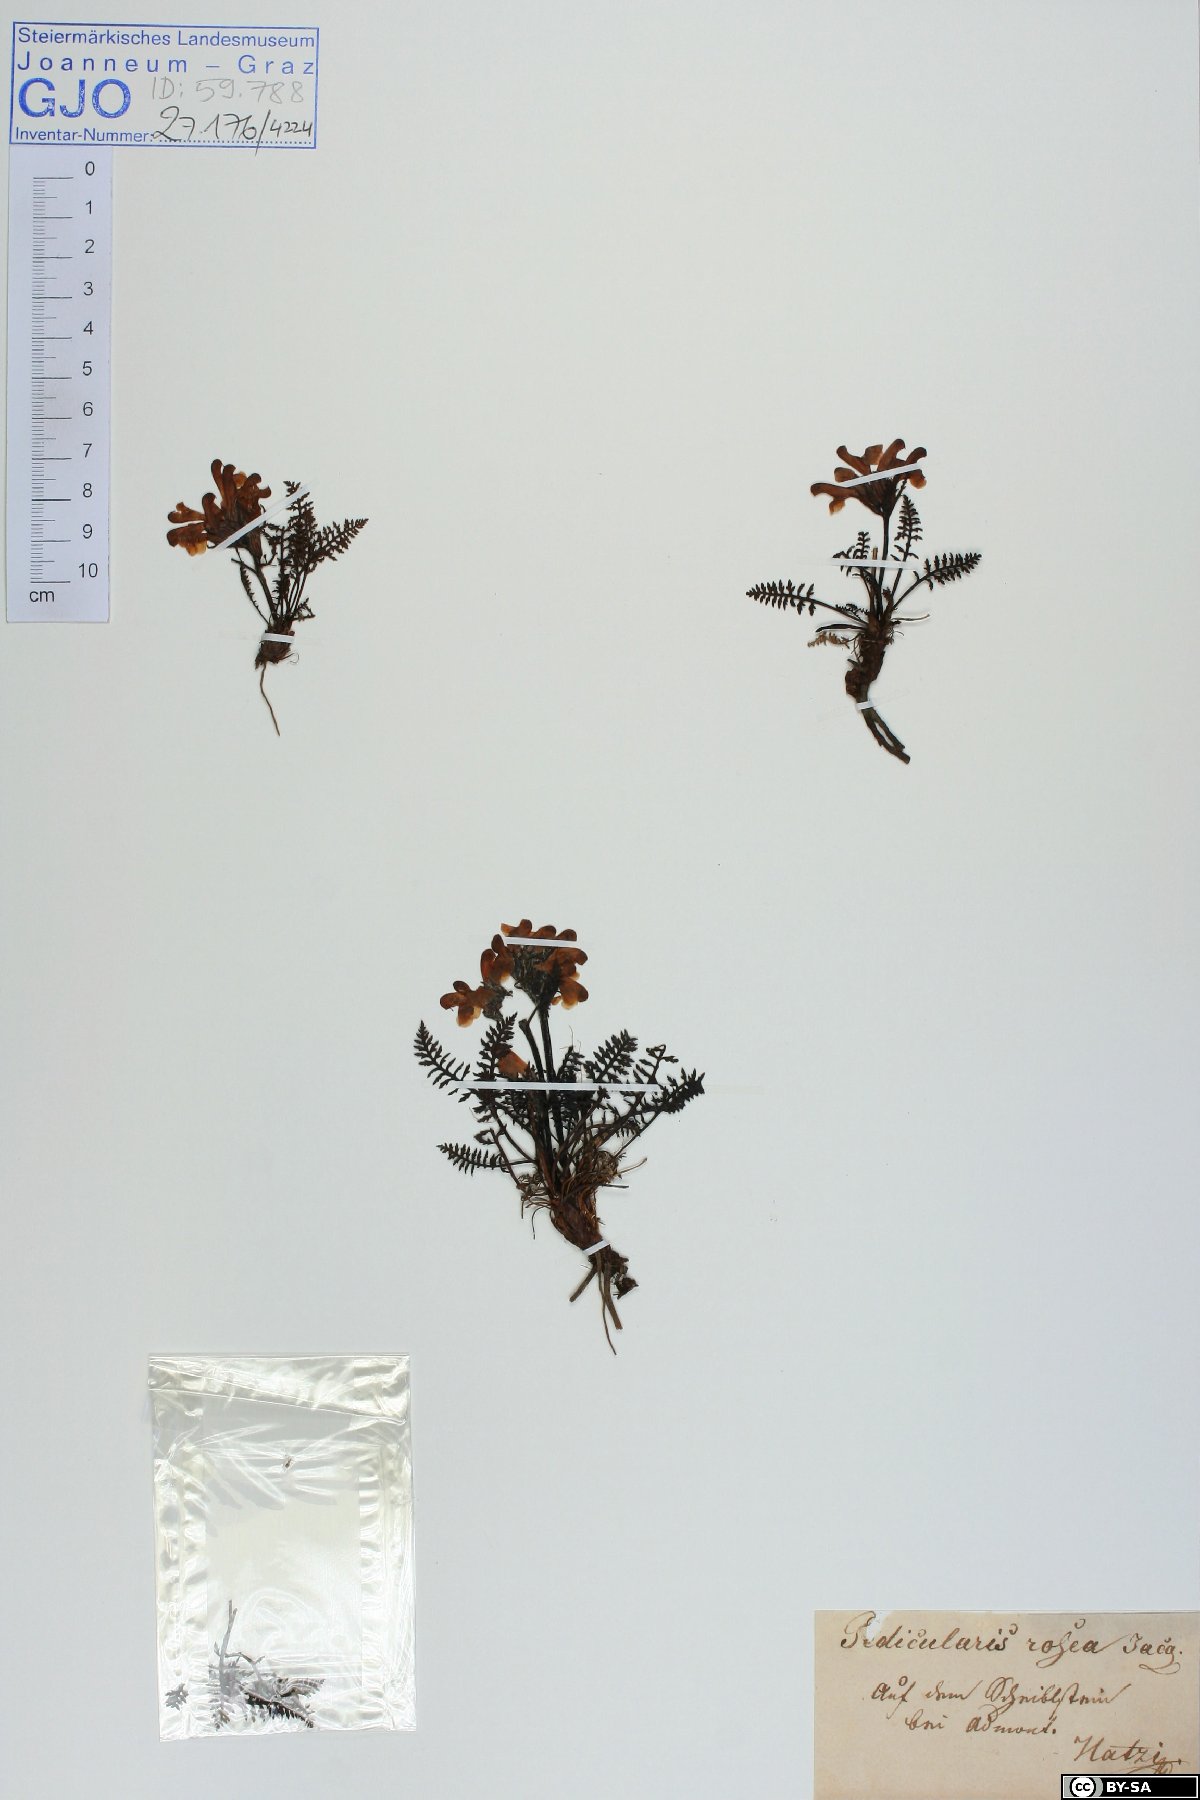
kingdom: Plantae
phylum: Tracheophyta
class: Magnoliopsida
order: Lamiales
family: Orobanchaceae
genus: Pedicularis
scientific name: Pedicularis rosea
